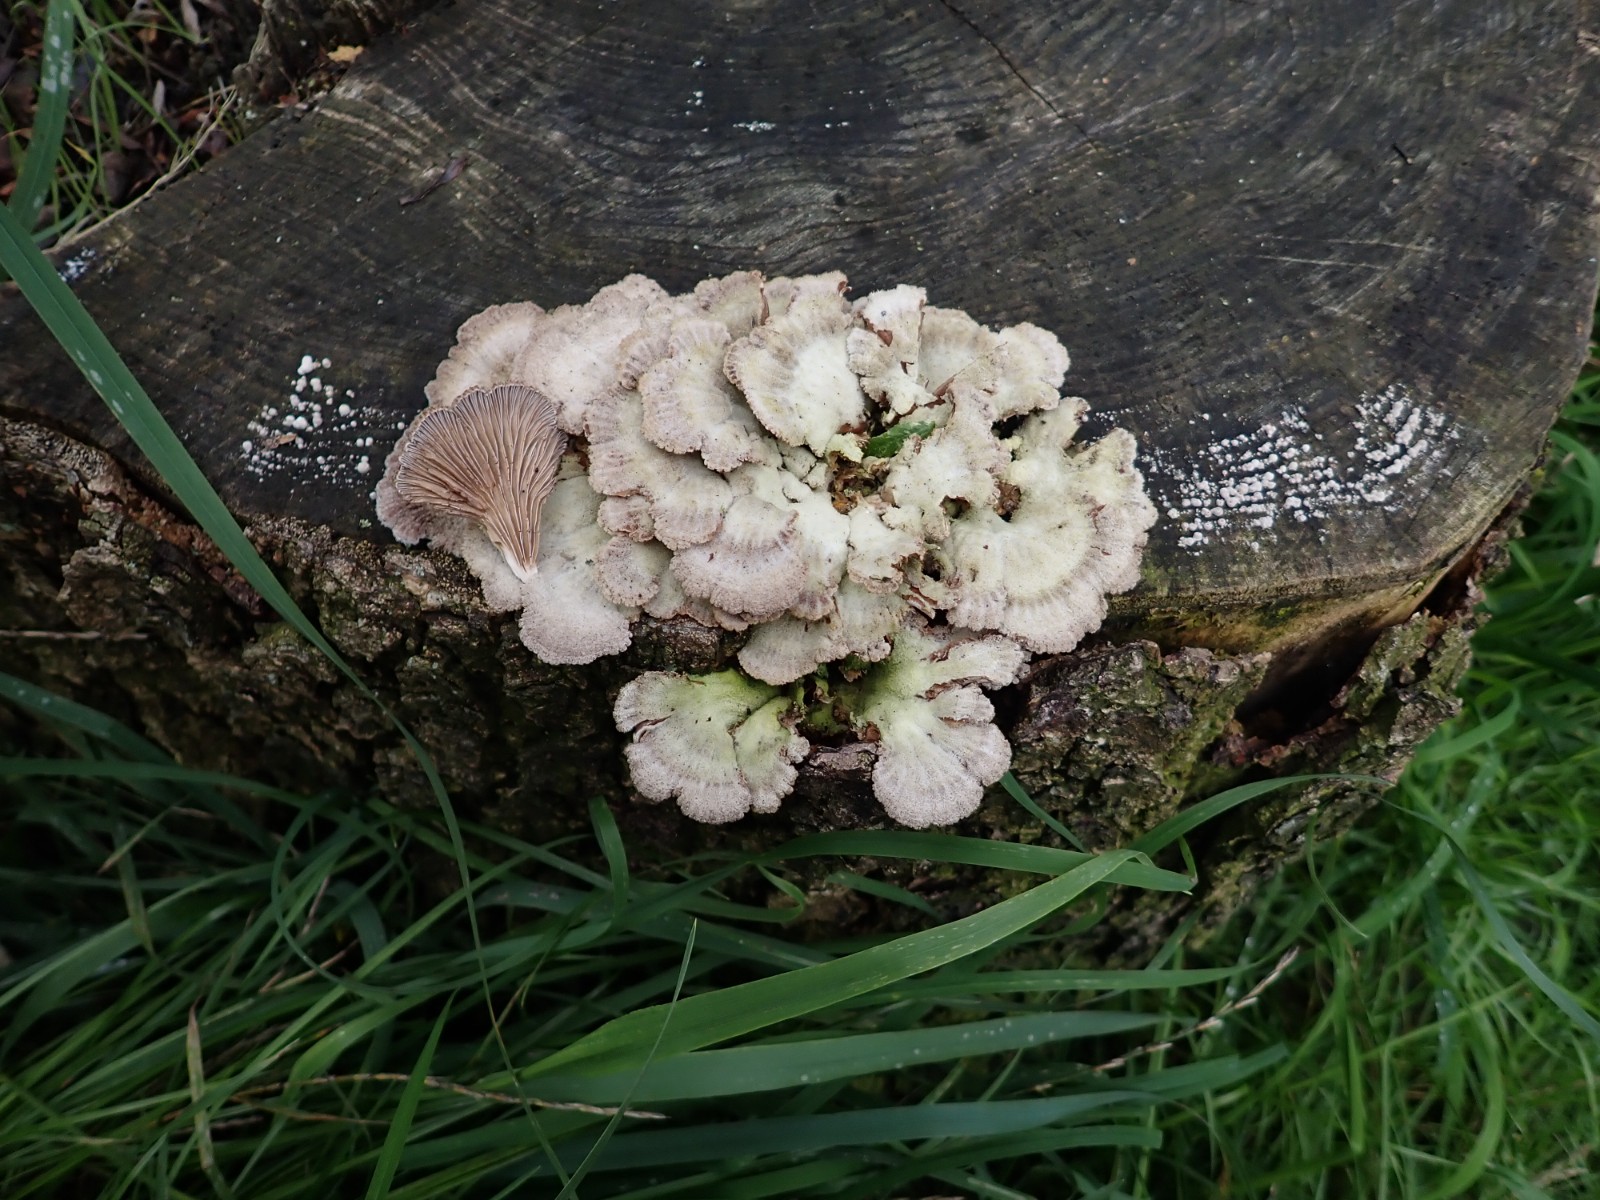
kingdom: Fungi
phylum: Basidiomycota
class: Agaricomycetes
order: Agaricales
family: Schizophyllaceae
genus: Schizophyllum
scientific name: Schizophyllum commune
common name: kløvblad
